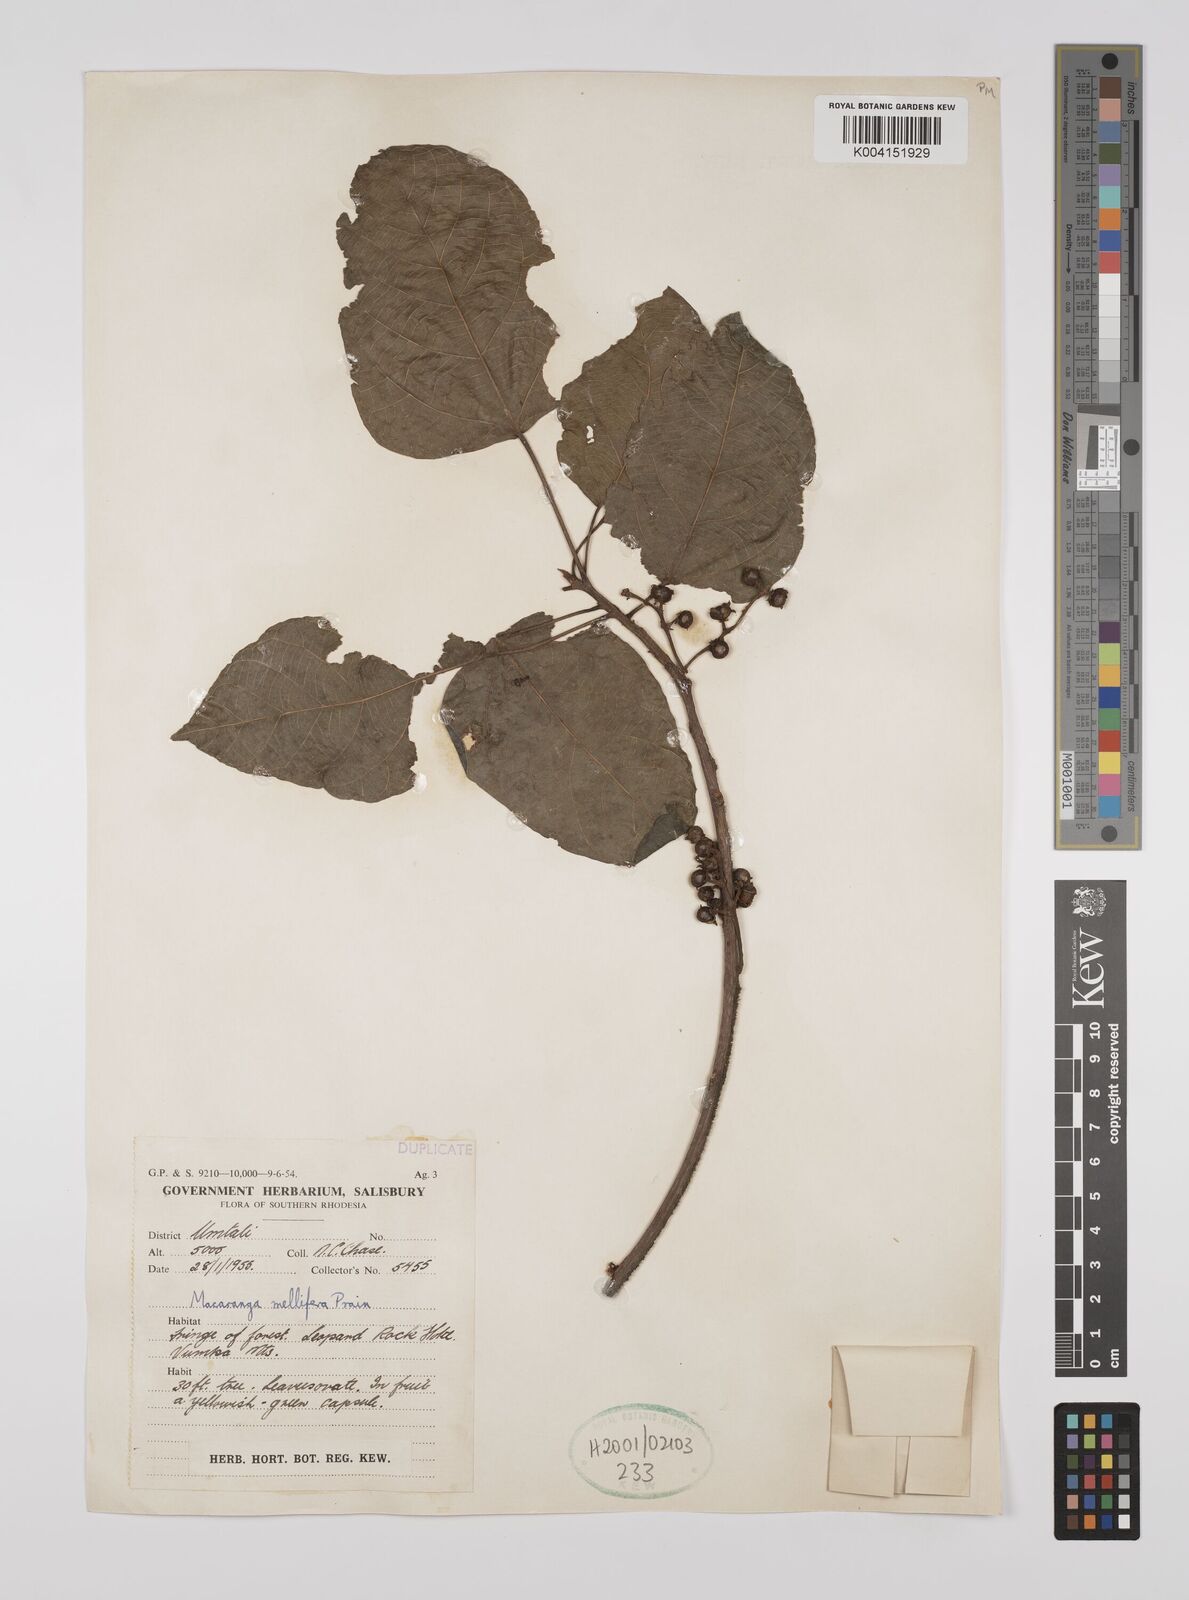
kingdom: Plantae
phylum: Tracheophyta
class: Magnoliopsida
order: Malpighiales
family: Euphorbiaceae
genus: Macaranga
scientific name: Macaranga mellifera
